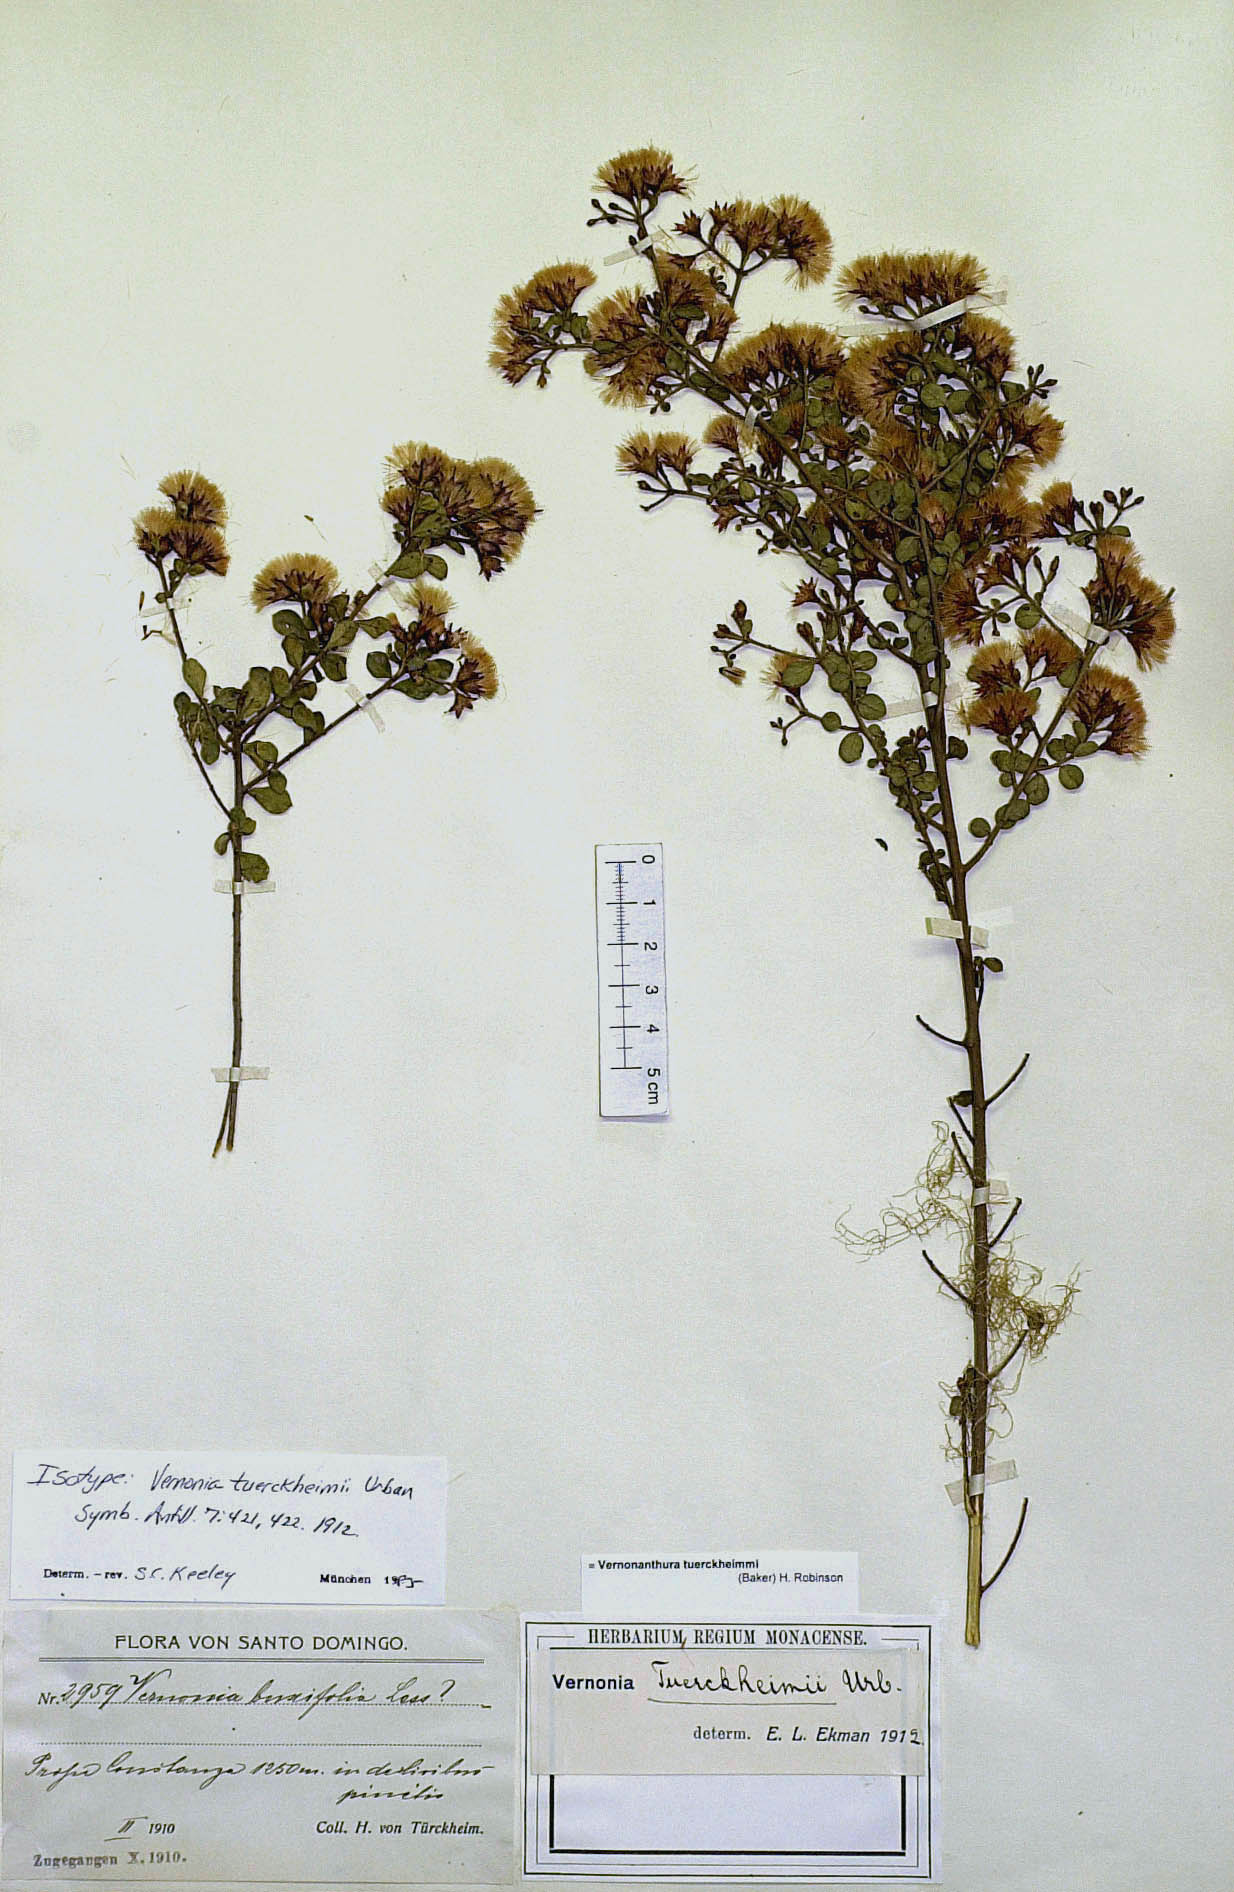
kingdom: Plantae
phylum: Tracheophyta
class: Magnoliopsida
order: Asterales
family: Asteraceae
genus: Vernonanthura
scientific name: Vernonanthura tuerckheimii
